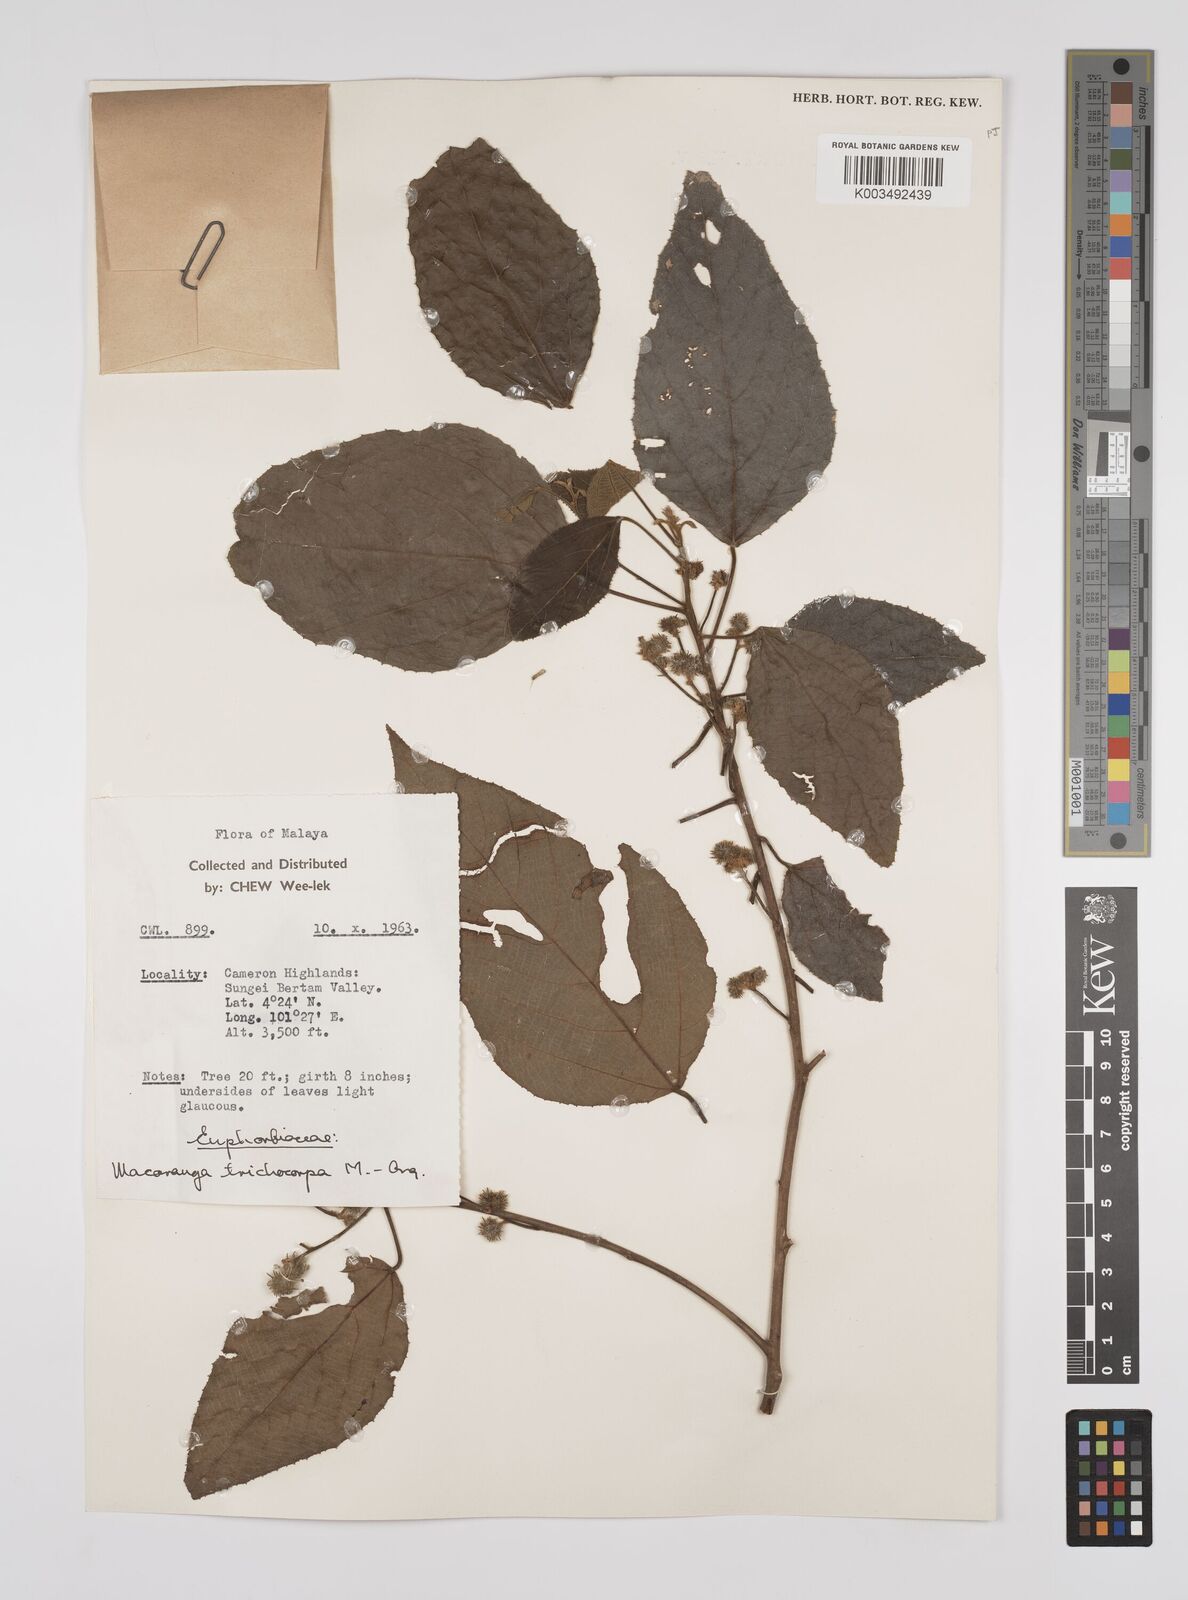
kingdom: Plantae
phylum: Tracheophyta
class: Magnoliopsida
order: Malpighiales
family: Euphorbiaceae
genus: Macaranga
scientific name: Macaranga trichocarpa
